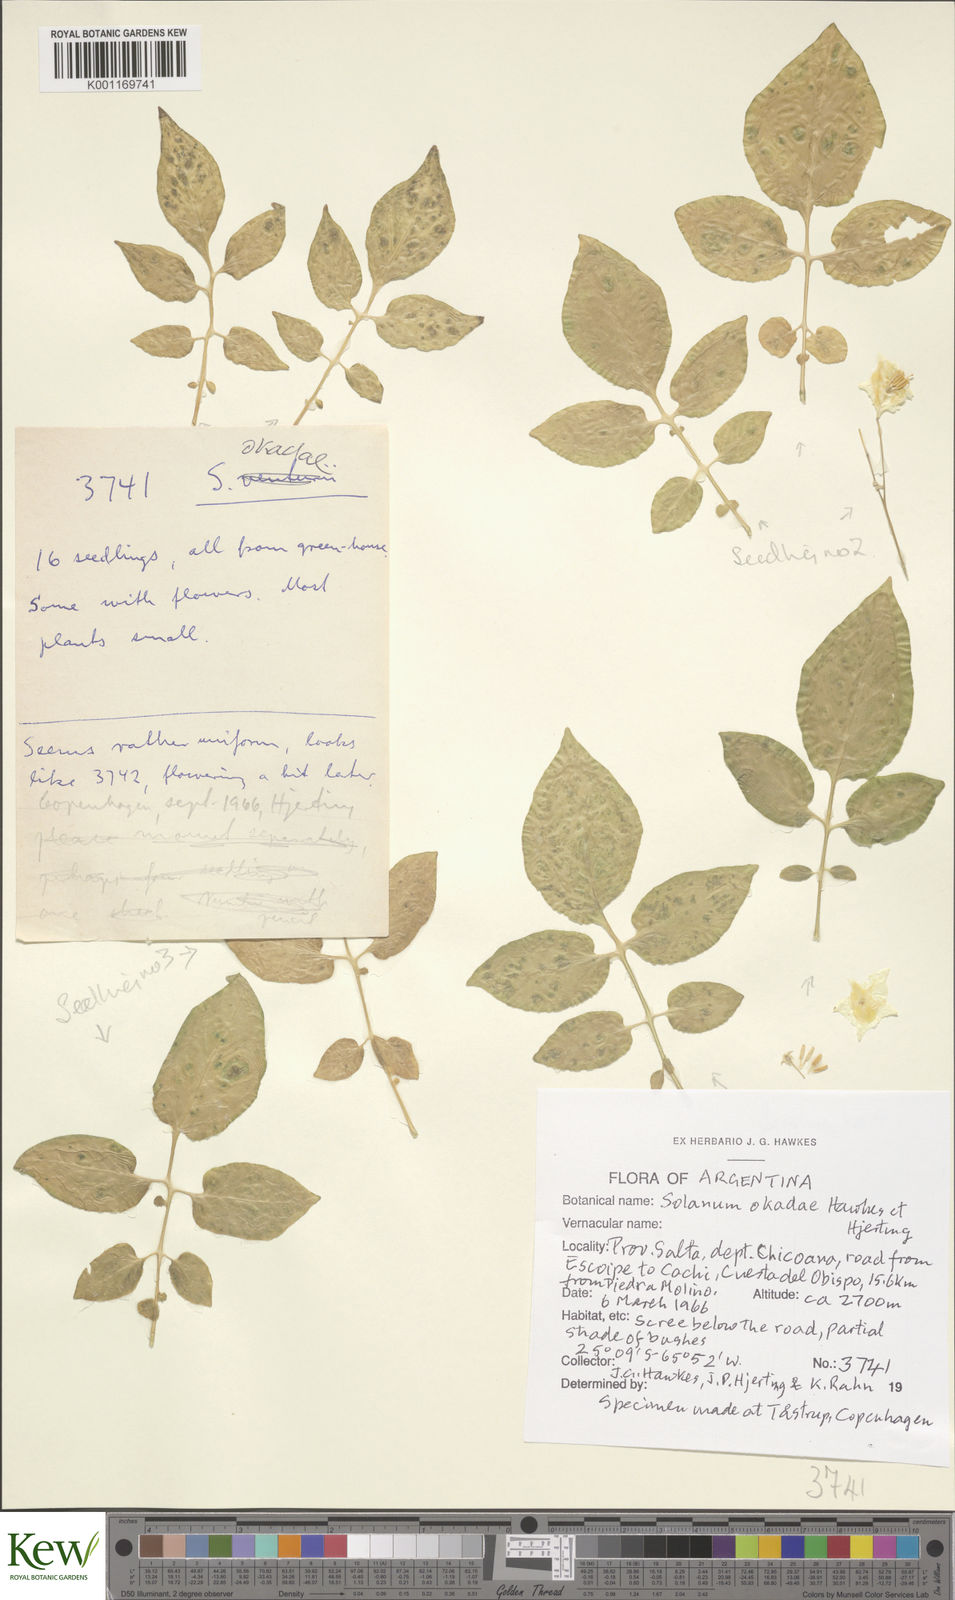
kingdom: Plantae
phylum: Tracheophyta
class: Magnoliopsida
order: Solanales
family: Solanaceae
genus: Solanum
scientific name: Solanum okadae
